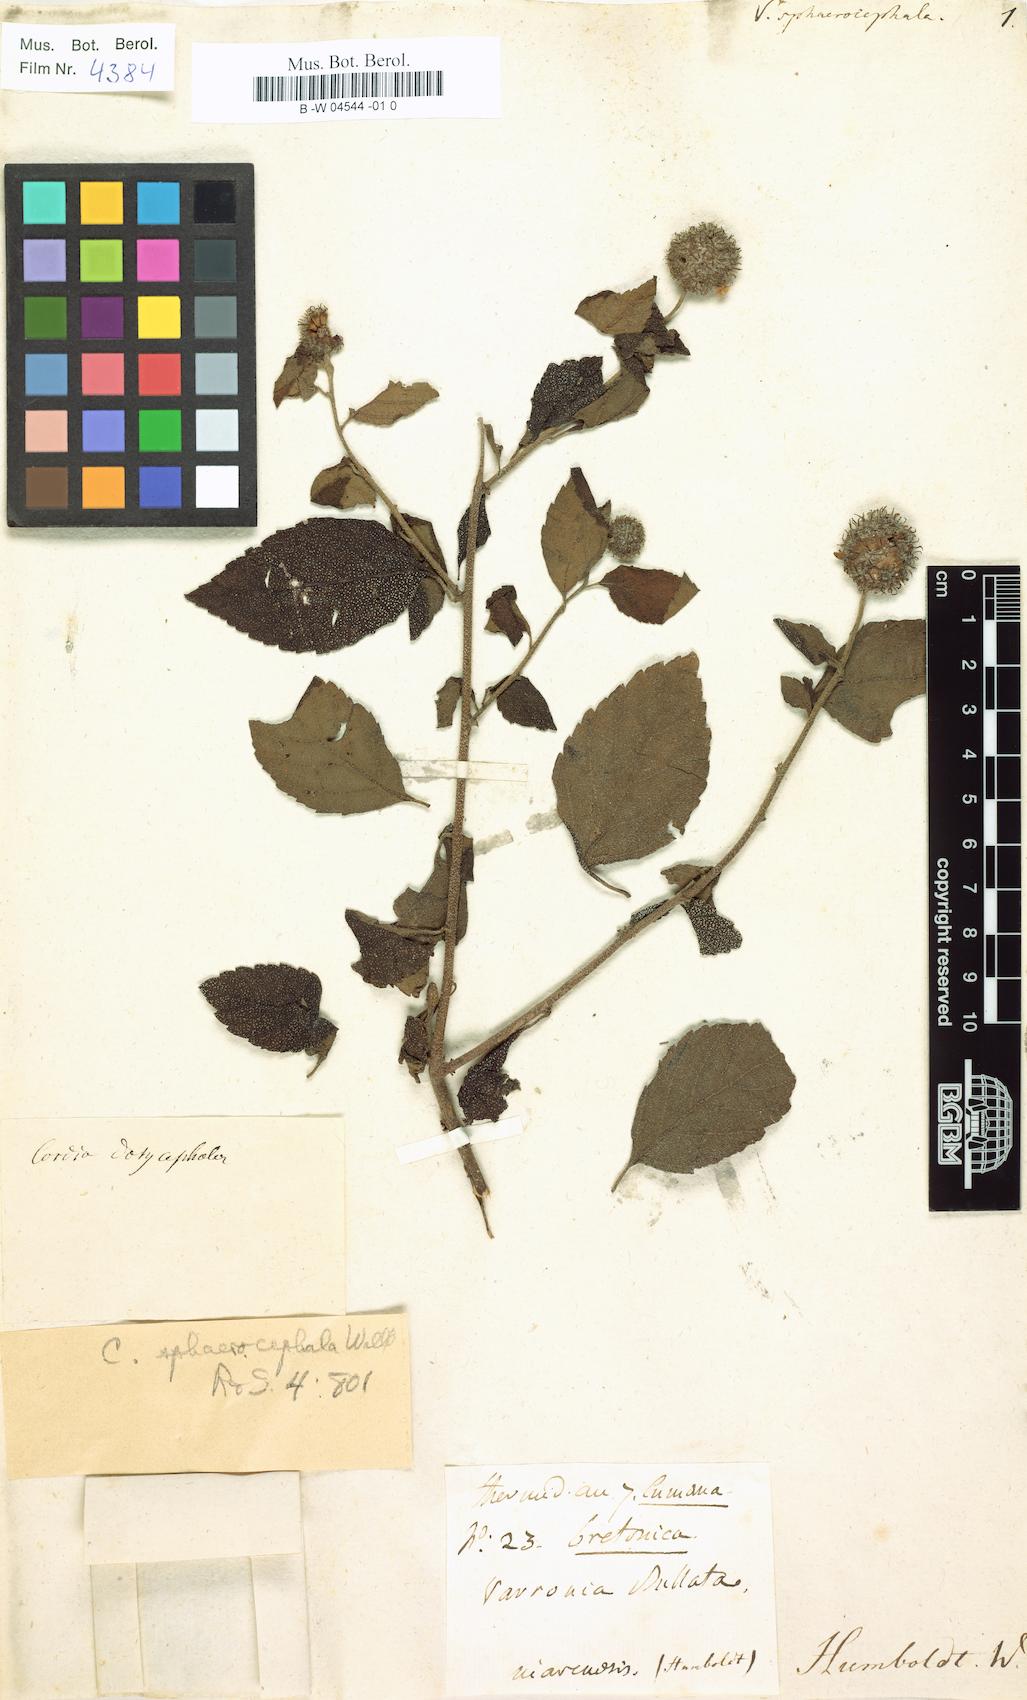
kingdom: Plantae
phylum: Tracheophyta
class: Magnoliopsida
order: Boraginales
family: Cordiaceae
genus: Varronia
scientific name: Varronia bullata
